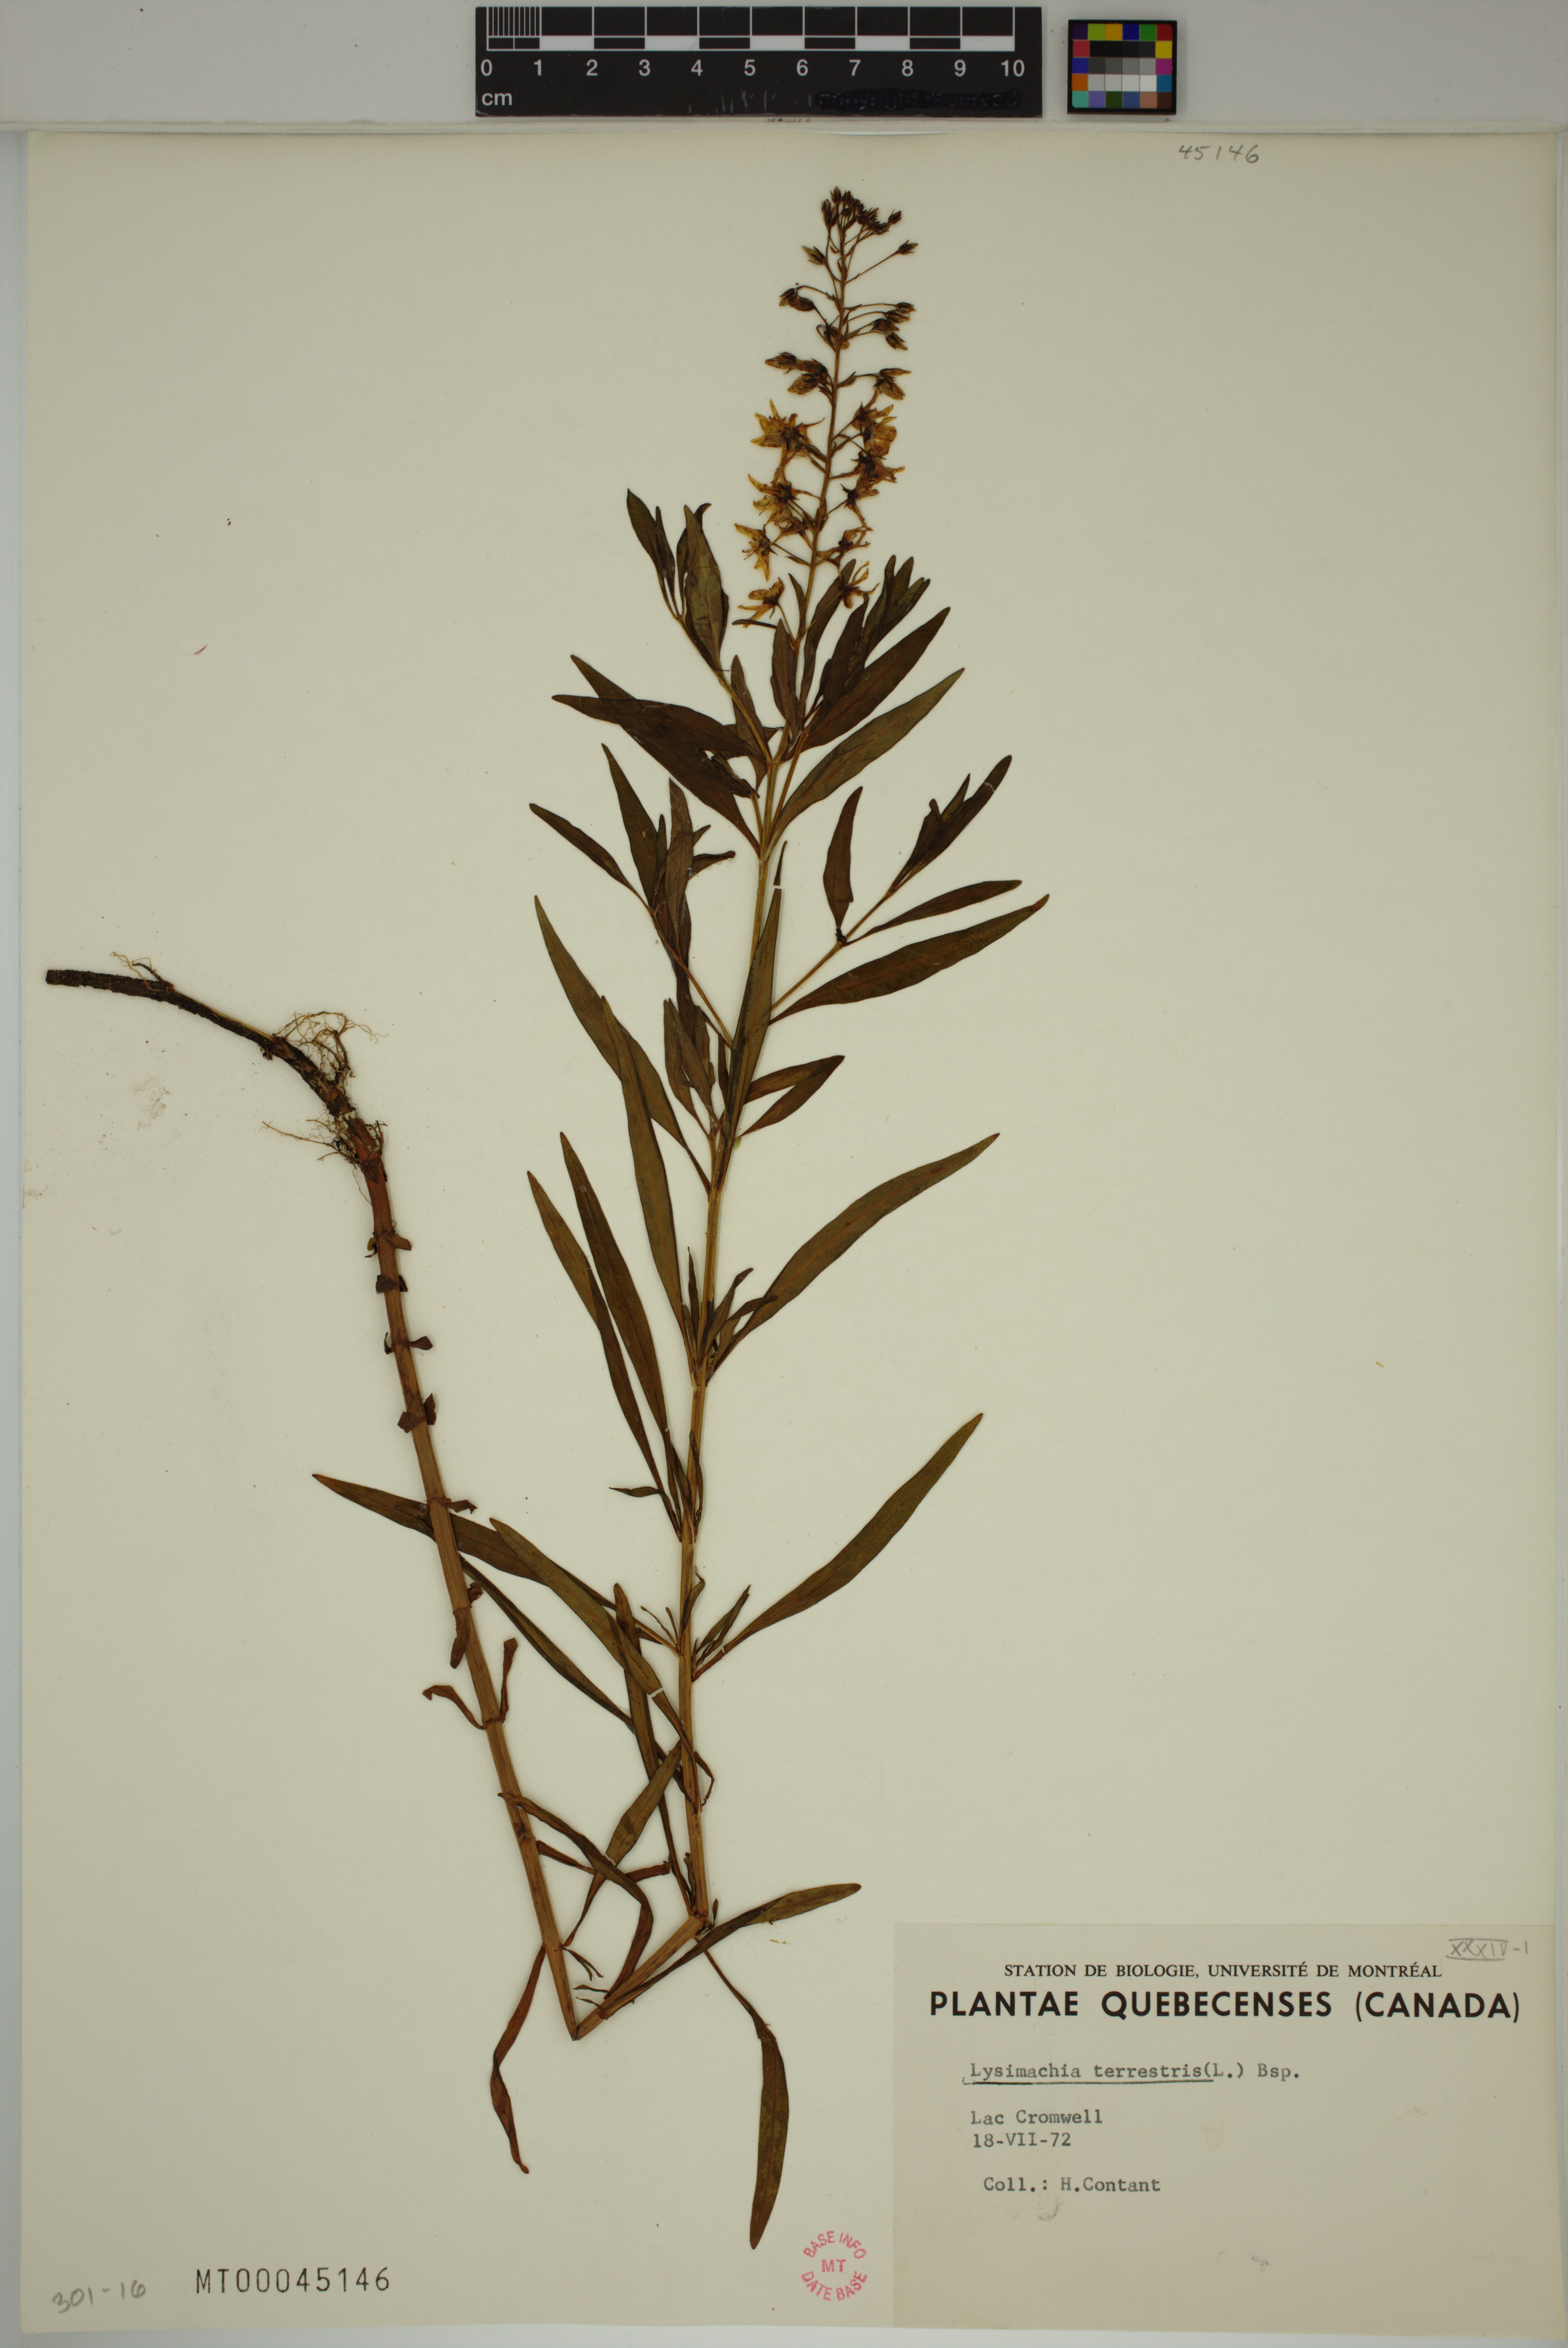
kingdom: Plantae
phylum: Tracheophyta
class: Magnoliopsida
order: Ericales
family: Primulaceae
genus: Lysimachia
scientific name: Lysimachia terrestris
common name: Lake loosestrife
